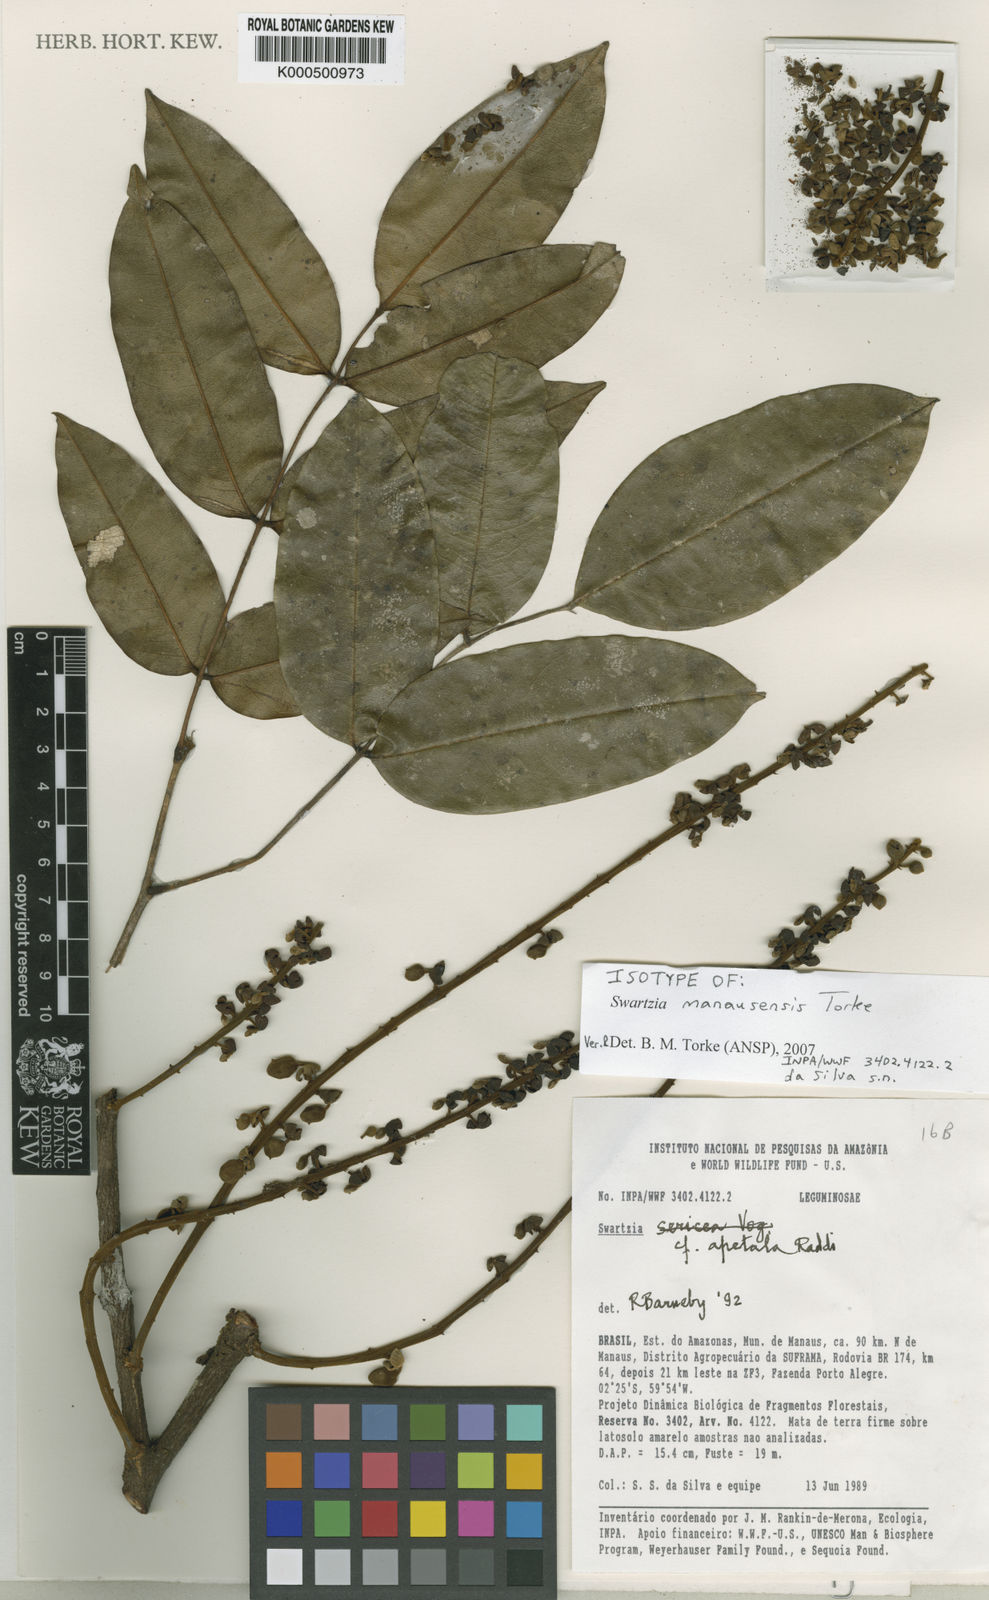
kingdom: Plantae
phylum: Tracheophyta
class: Magnoliopsida
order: Fabales
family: Fabaceae
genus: Swartzia
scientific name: Swartzia
